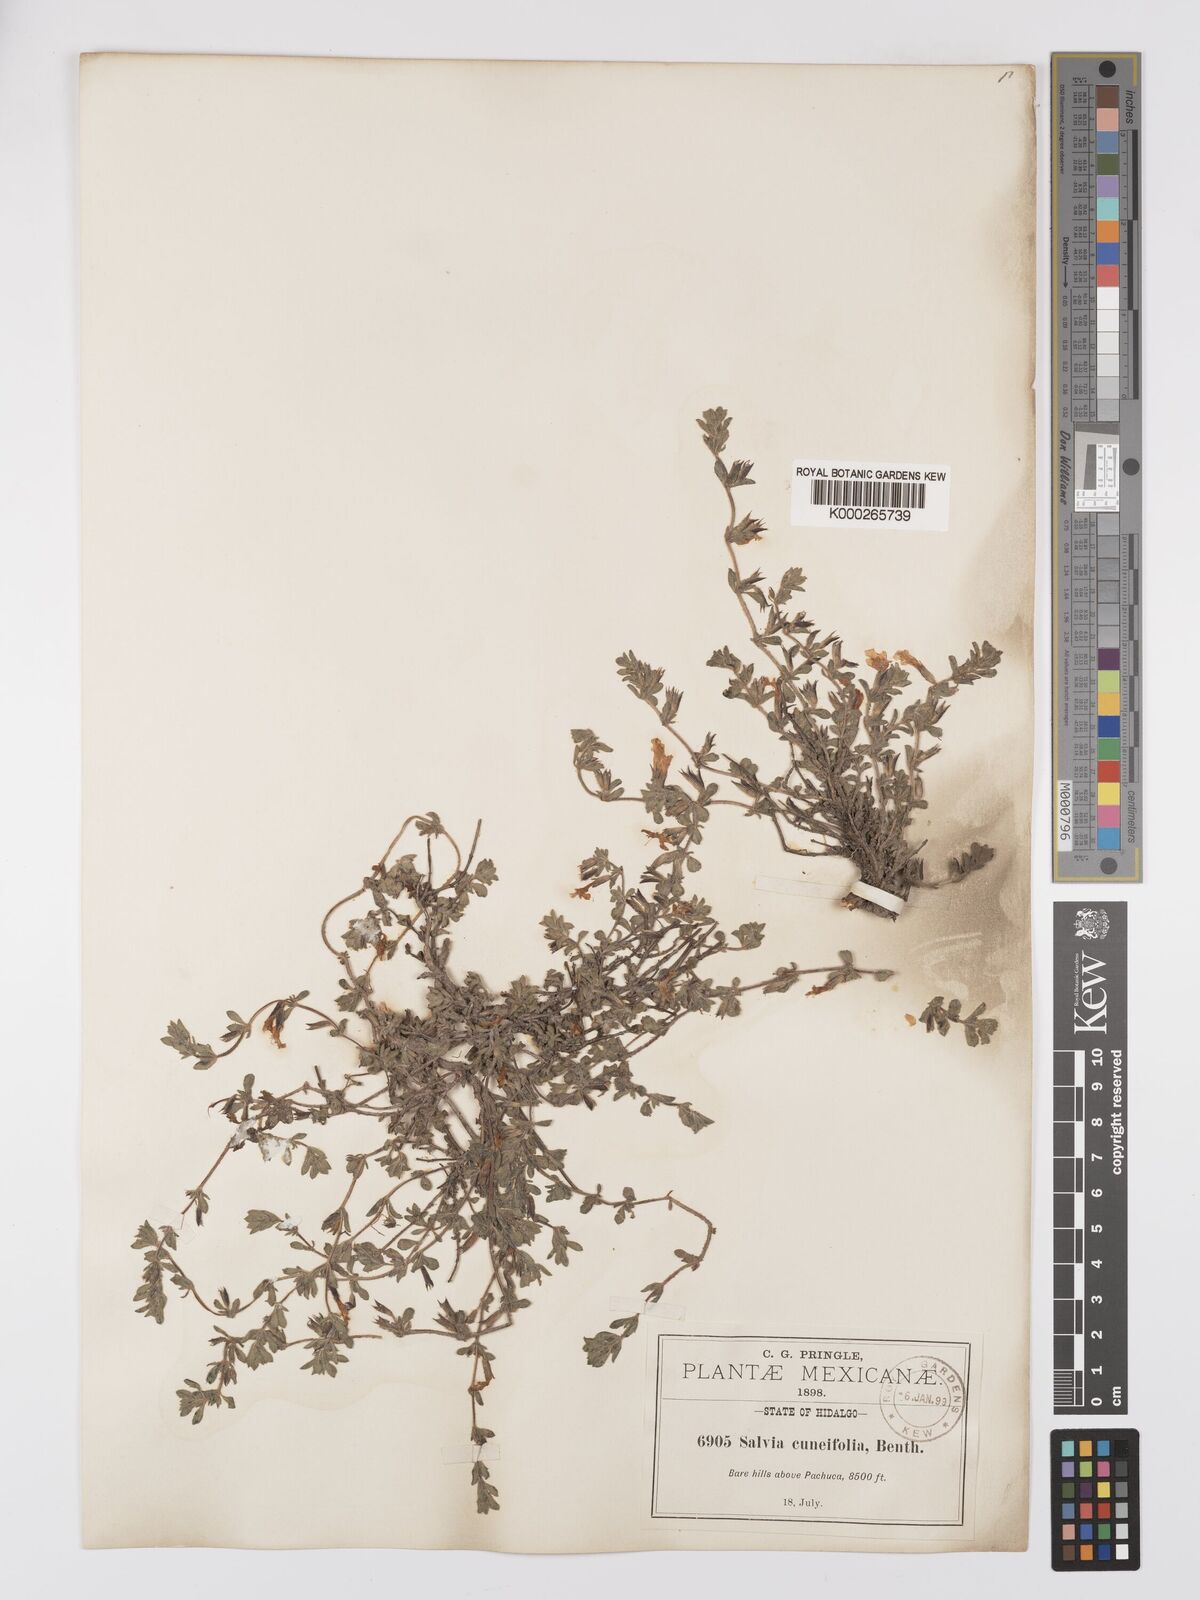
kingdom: Plantae
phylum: Tracheophyta
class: Magnoliopsida
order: Lamiales
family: Lamiaceae
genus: Salvia
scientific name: Salvia
